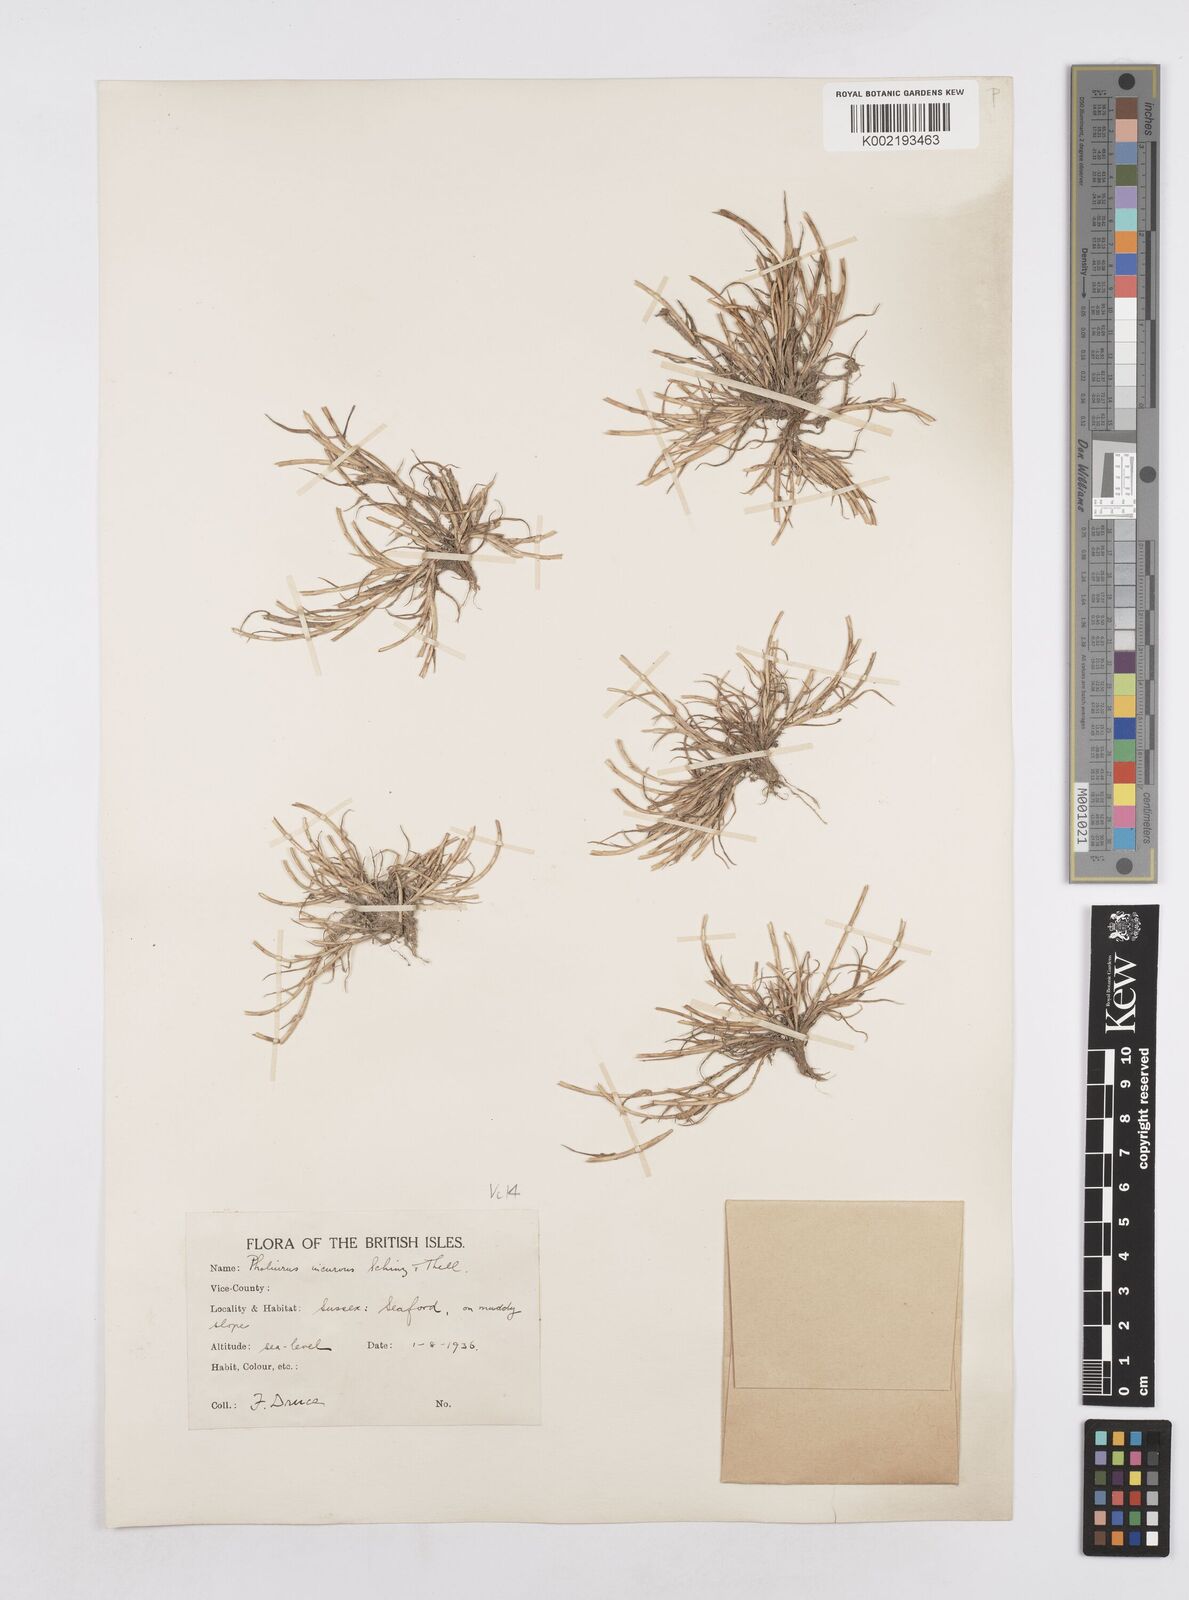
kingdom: Plantae
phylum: Tracheophyta
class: Liliopsida
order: Poales
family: Poaceae
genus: Parapholis
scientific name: Parapholis incurva
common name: Curved sicklegrass
